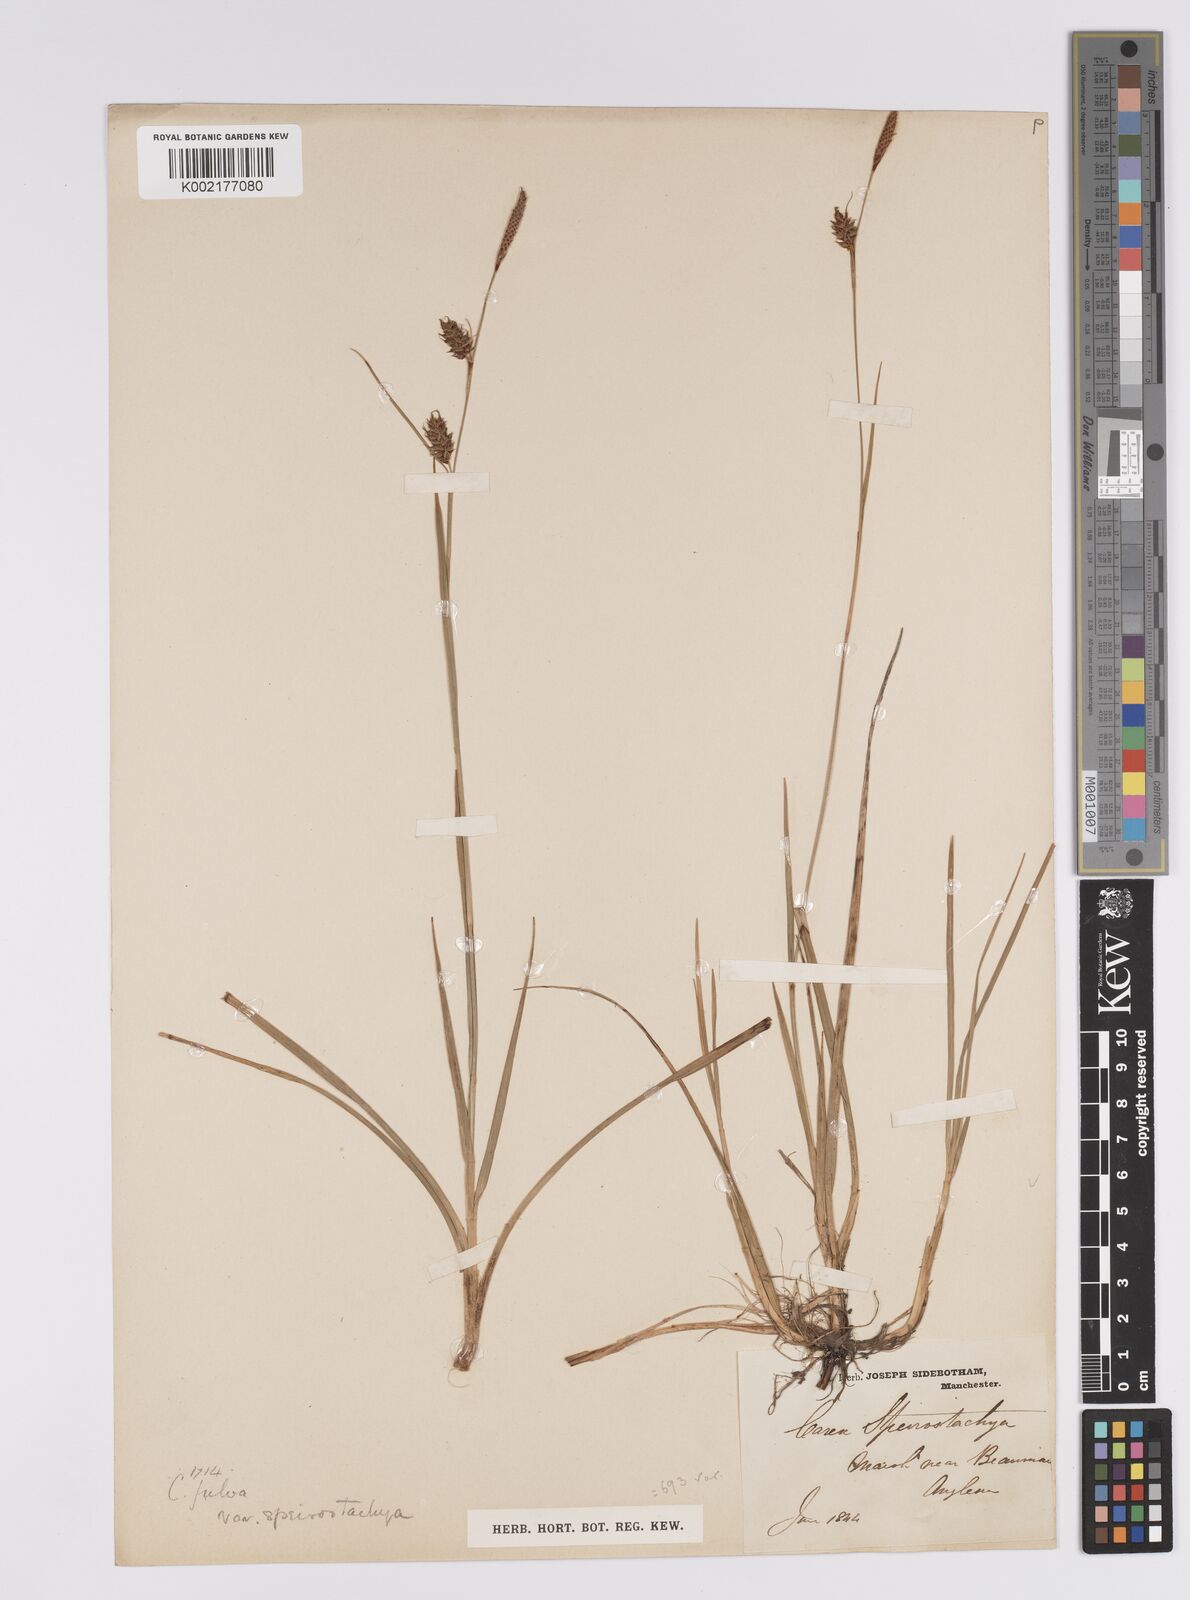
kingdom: Plantae
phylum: Tracheophyta
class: Liliopsida
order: Poales
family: Cyperaceae
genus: Carex
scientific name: Carex hostiana
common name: Tawny sedge
